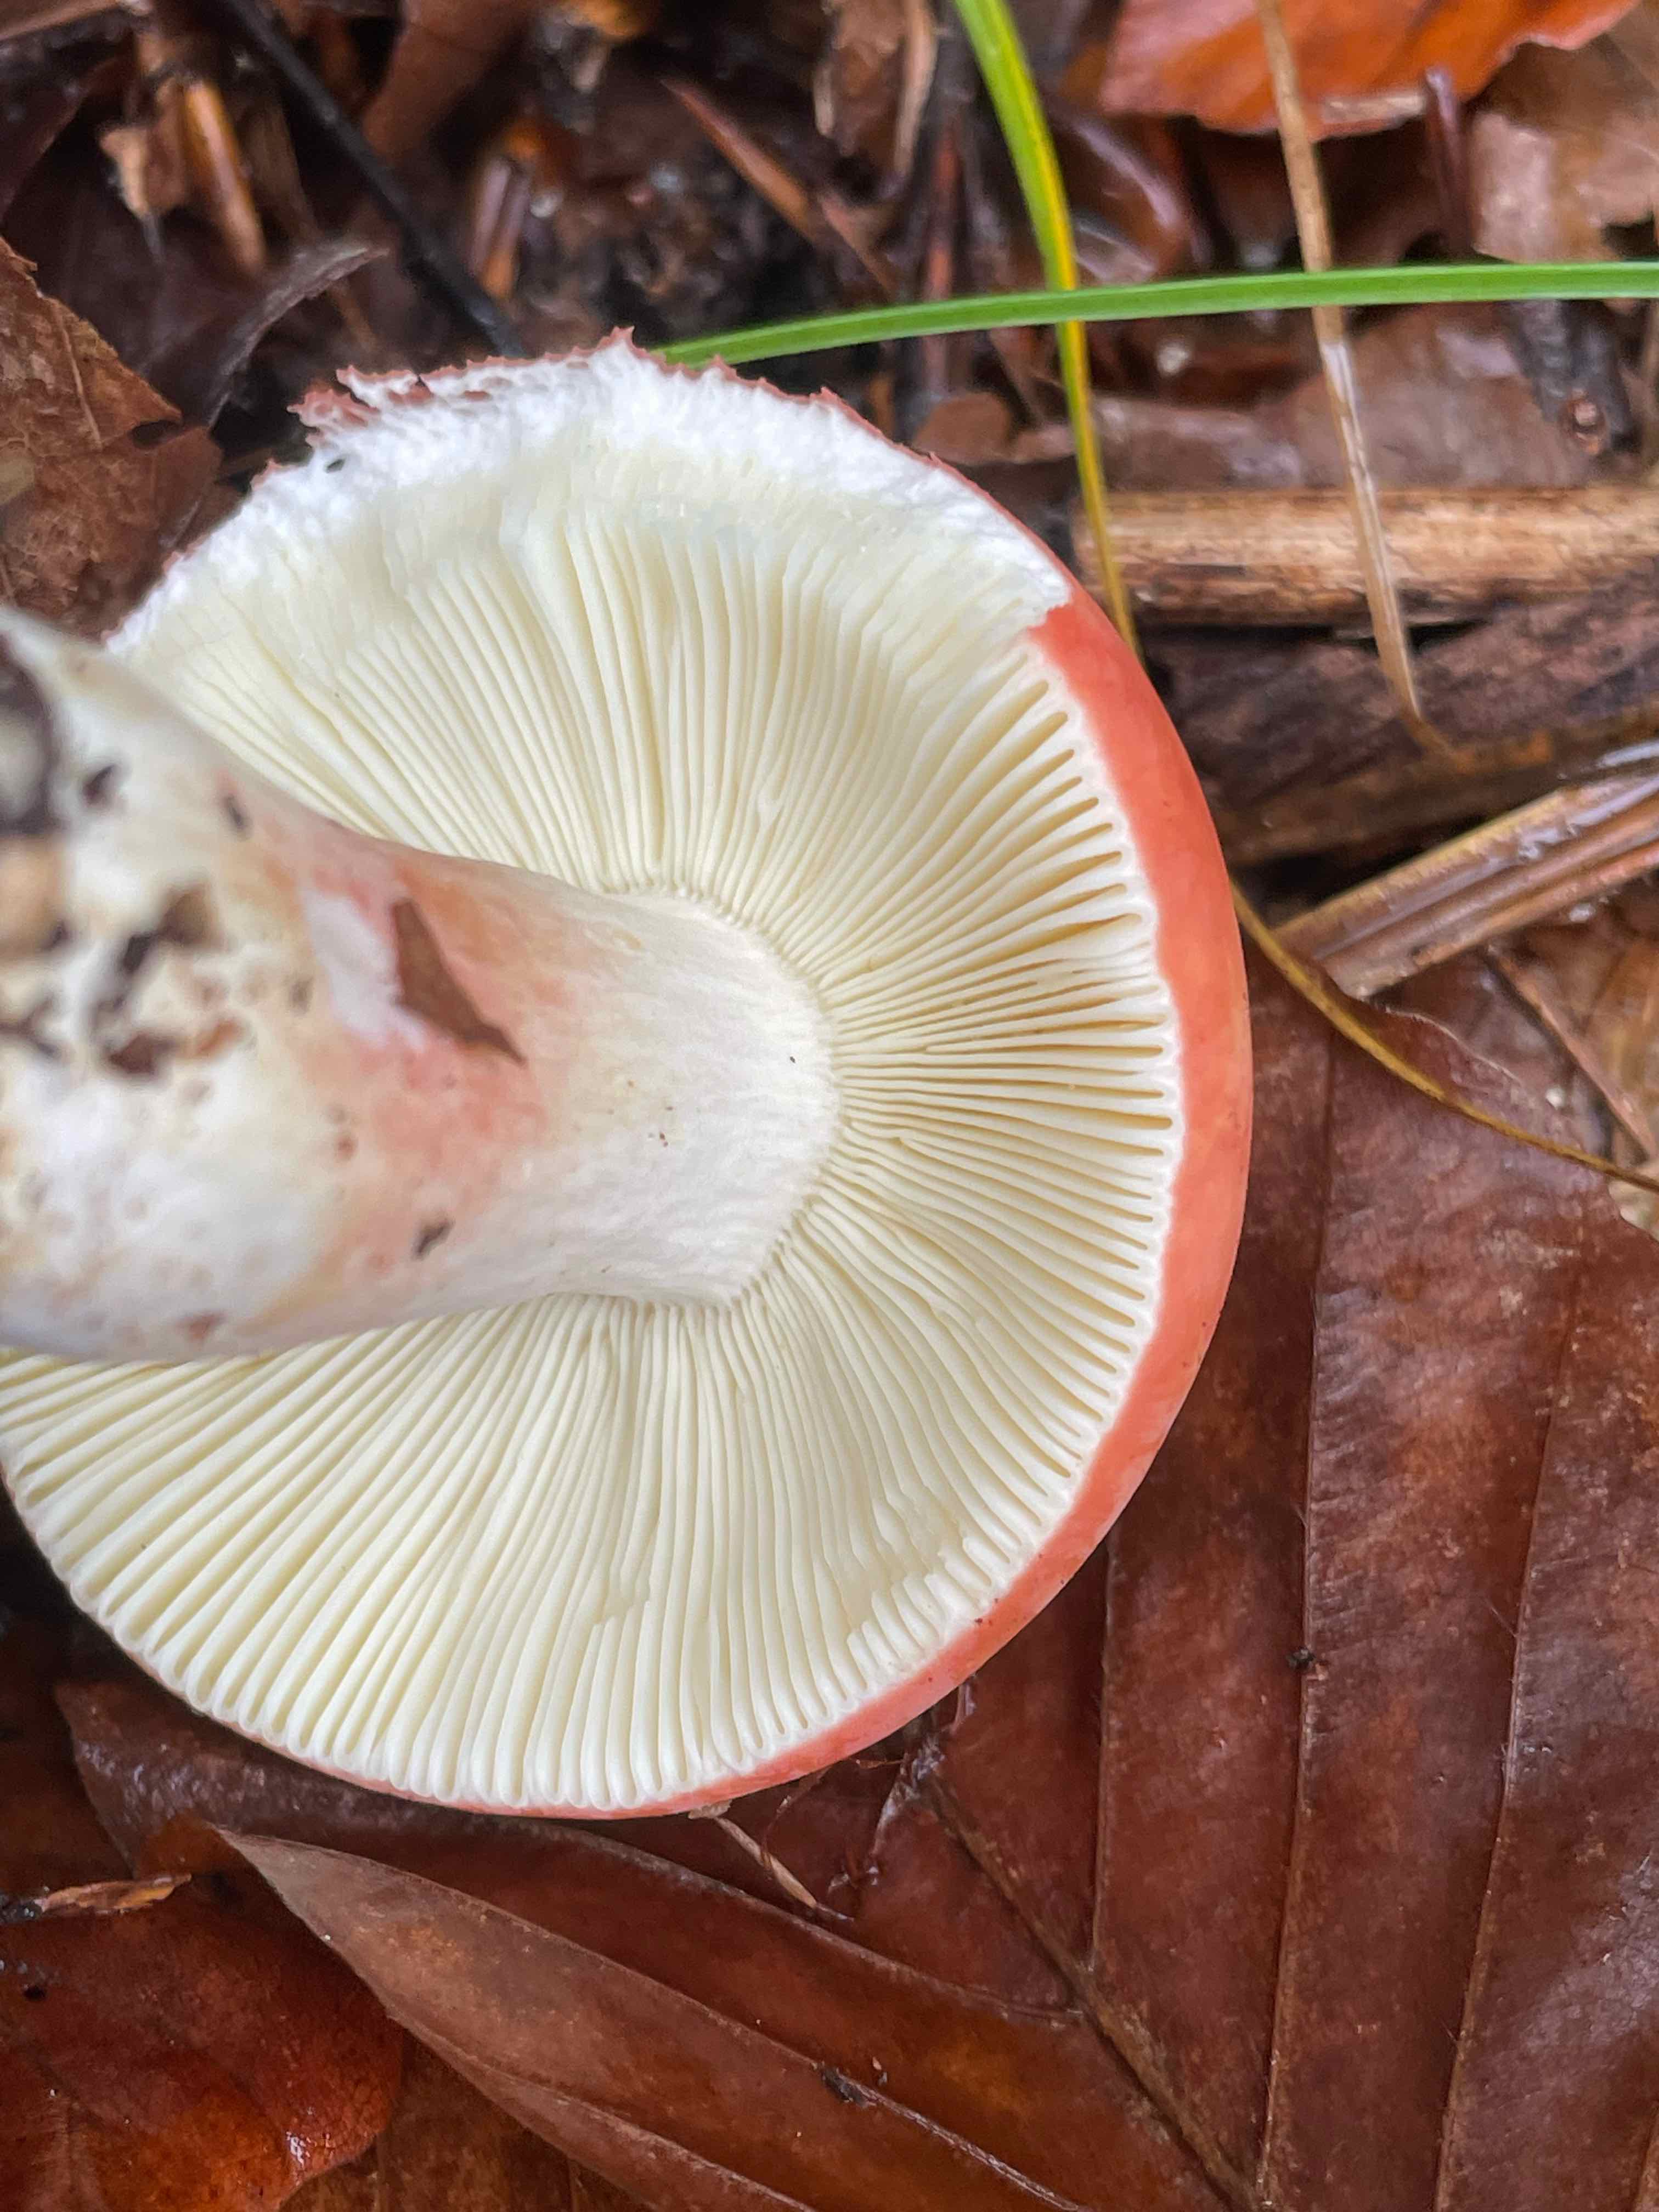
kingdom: Fungi
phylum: Basidiomycota
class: Agaricomycetes
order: Russulales
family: Russulaceae
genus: Russula
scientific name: Russula rosea
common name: fastkødet skørhat
